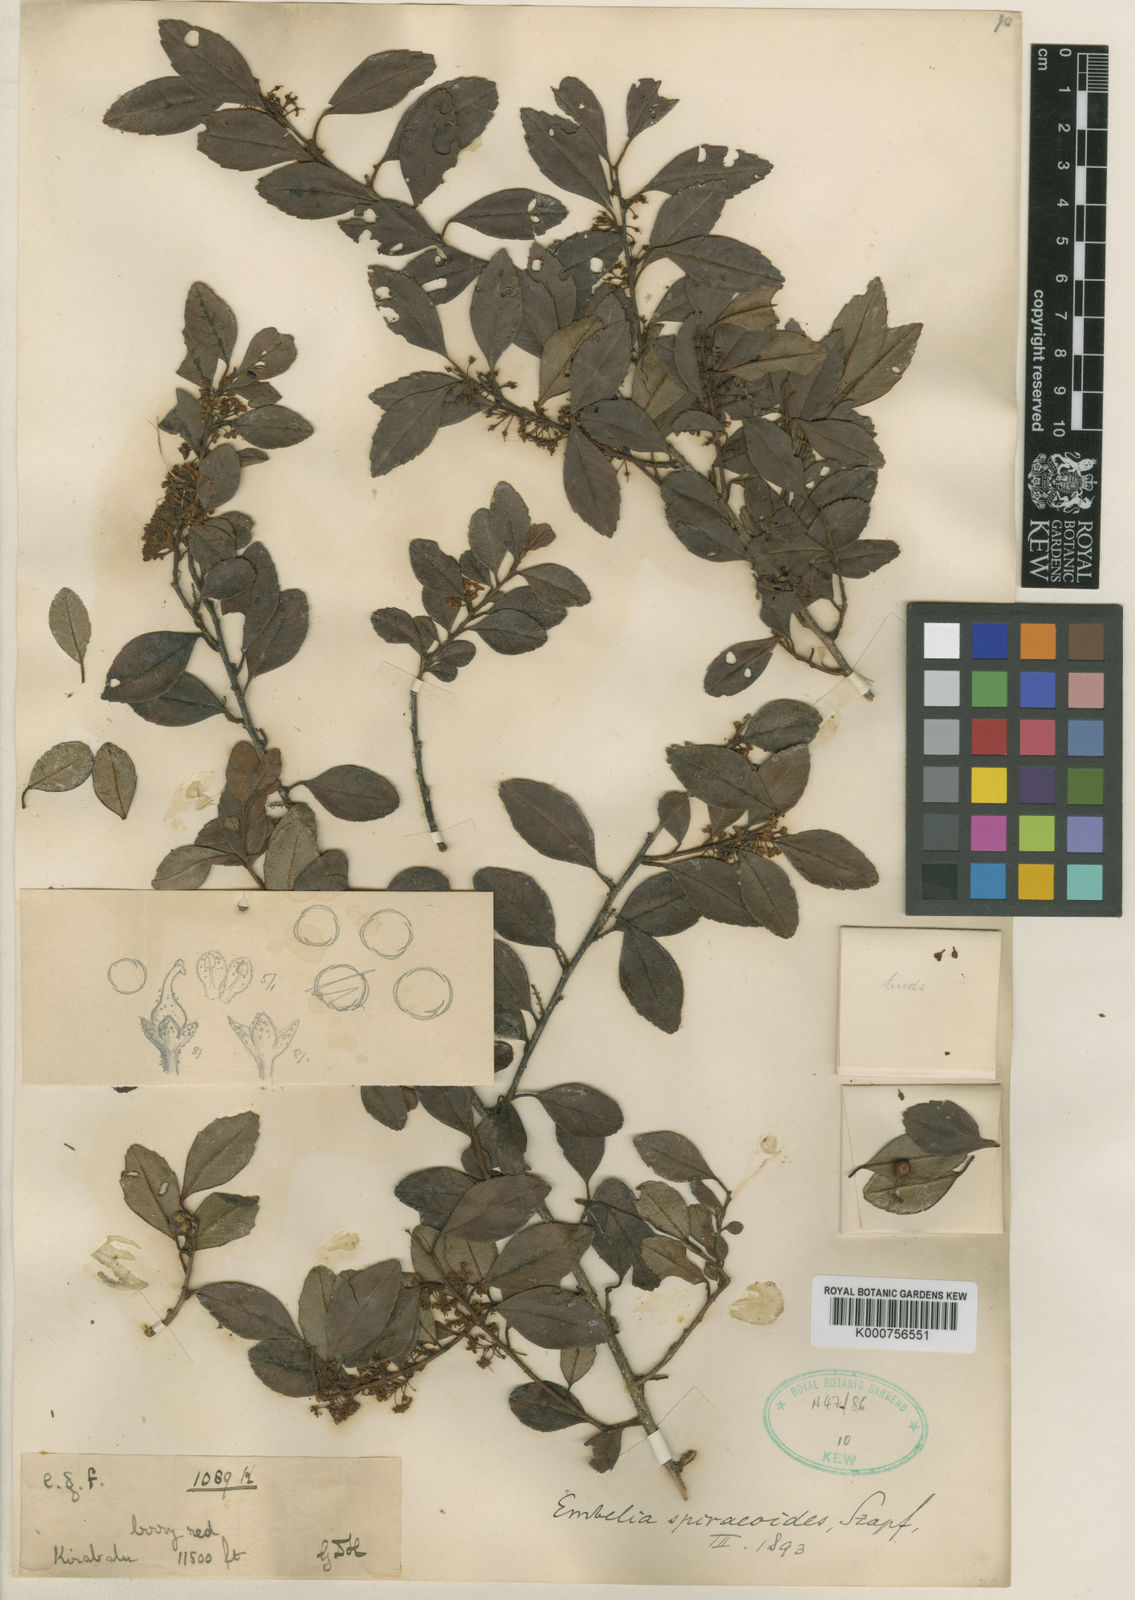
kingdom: Plantae
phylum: Tracheophyta
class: Magnoliopsida
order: Ericales
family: Primulaceae
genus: Embelia
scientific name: Embelia spiraeoides
